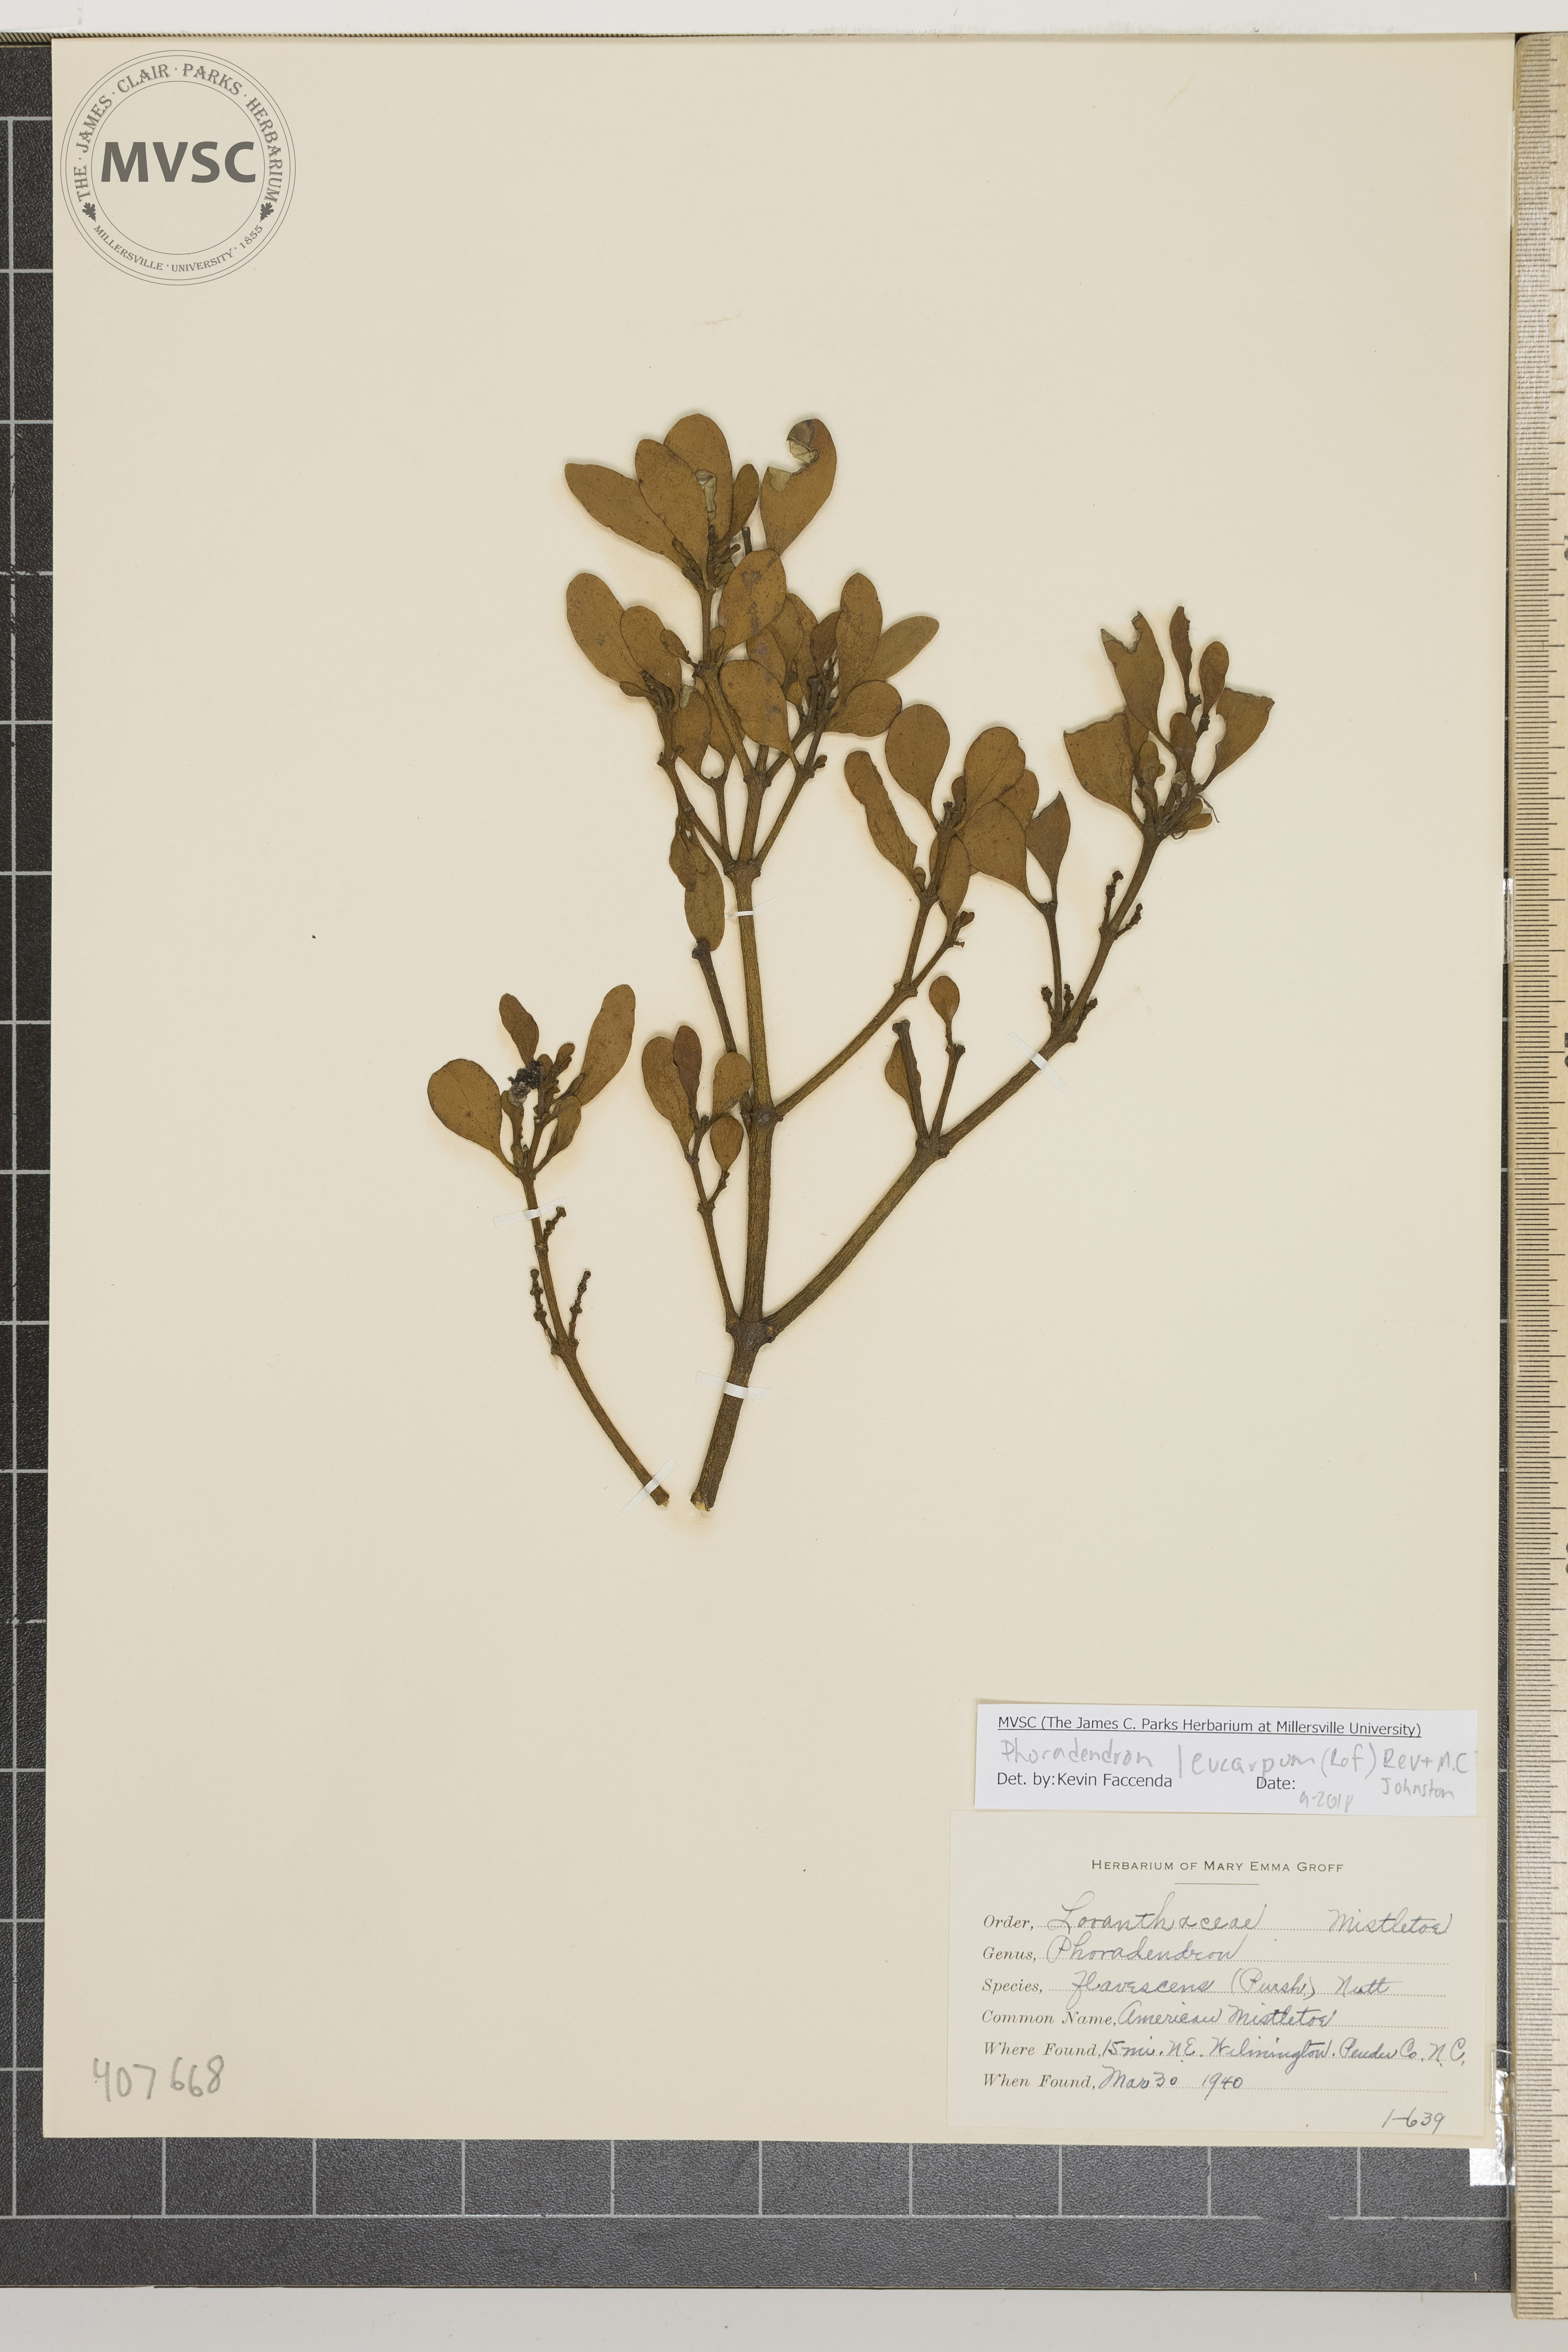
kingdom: Plantae
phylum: Tracheophyta
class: Magnoliopsida
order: Santalales
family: Viscaceae
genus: Phoradendron
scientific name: Phoradendron leucarpum
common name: American Mistletoe
